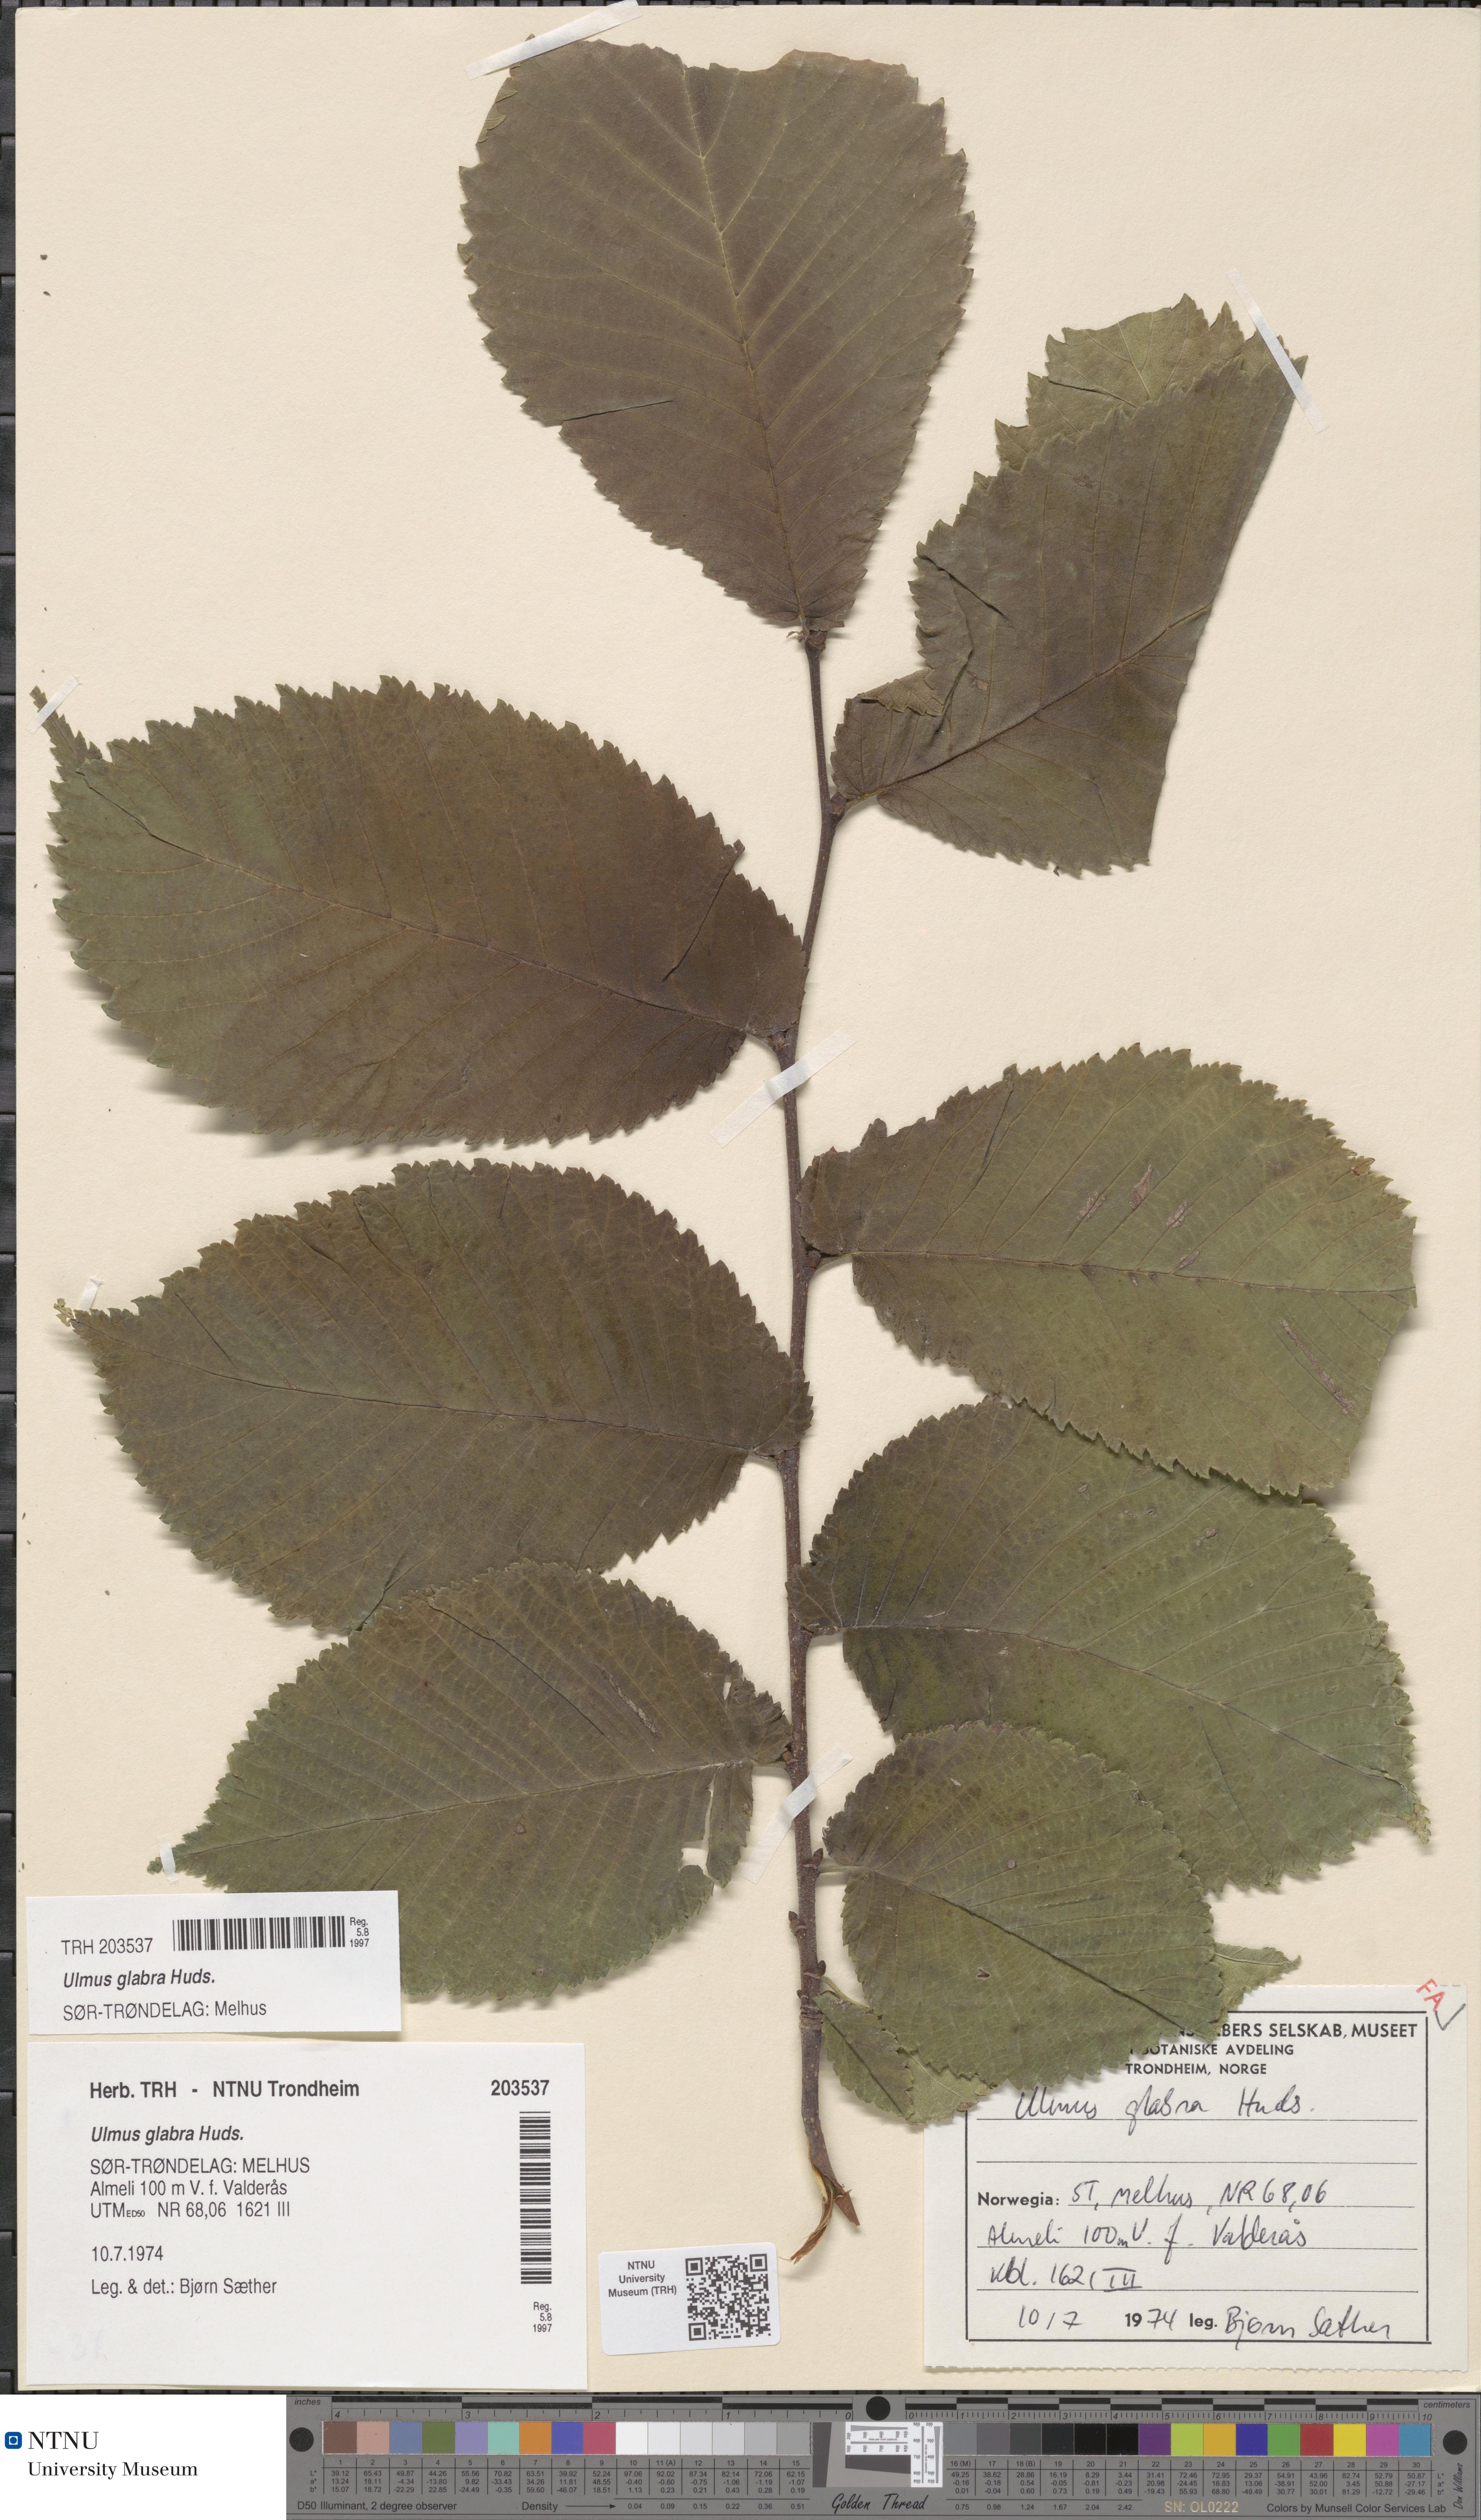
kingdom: Plantae
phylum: Tracheophyta
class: Magnoliopsida
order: Rosales
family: Ulmaceae
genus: Ulmus
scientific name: Ulmus glabra
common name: Wych elm
